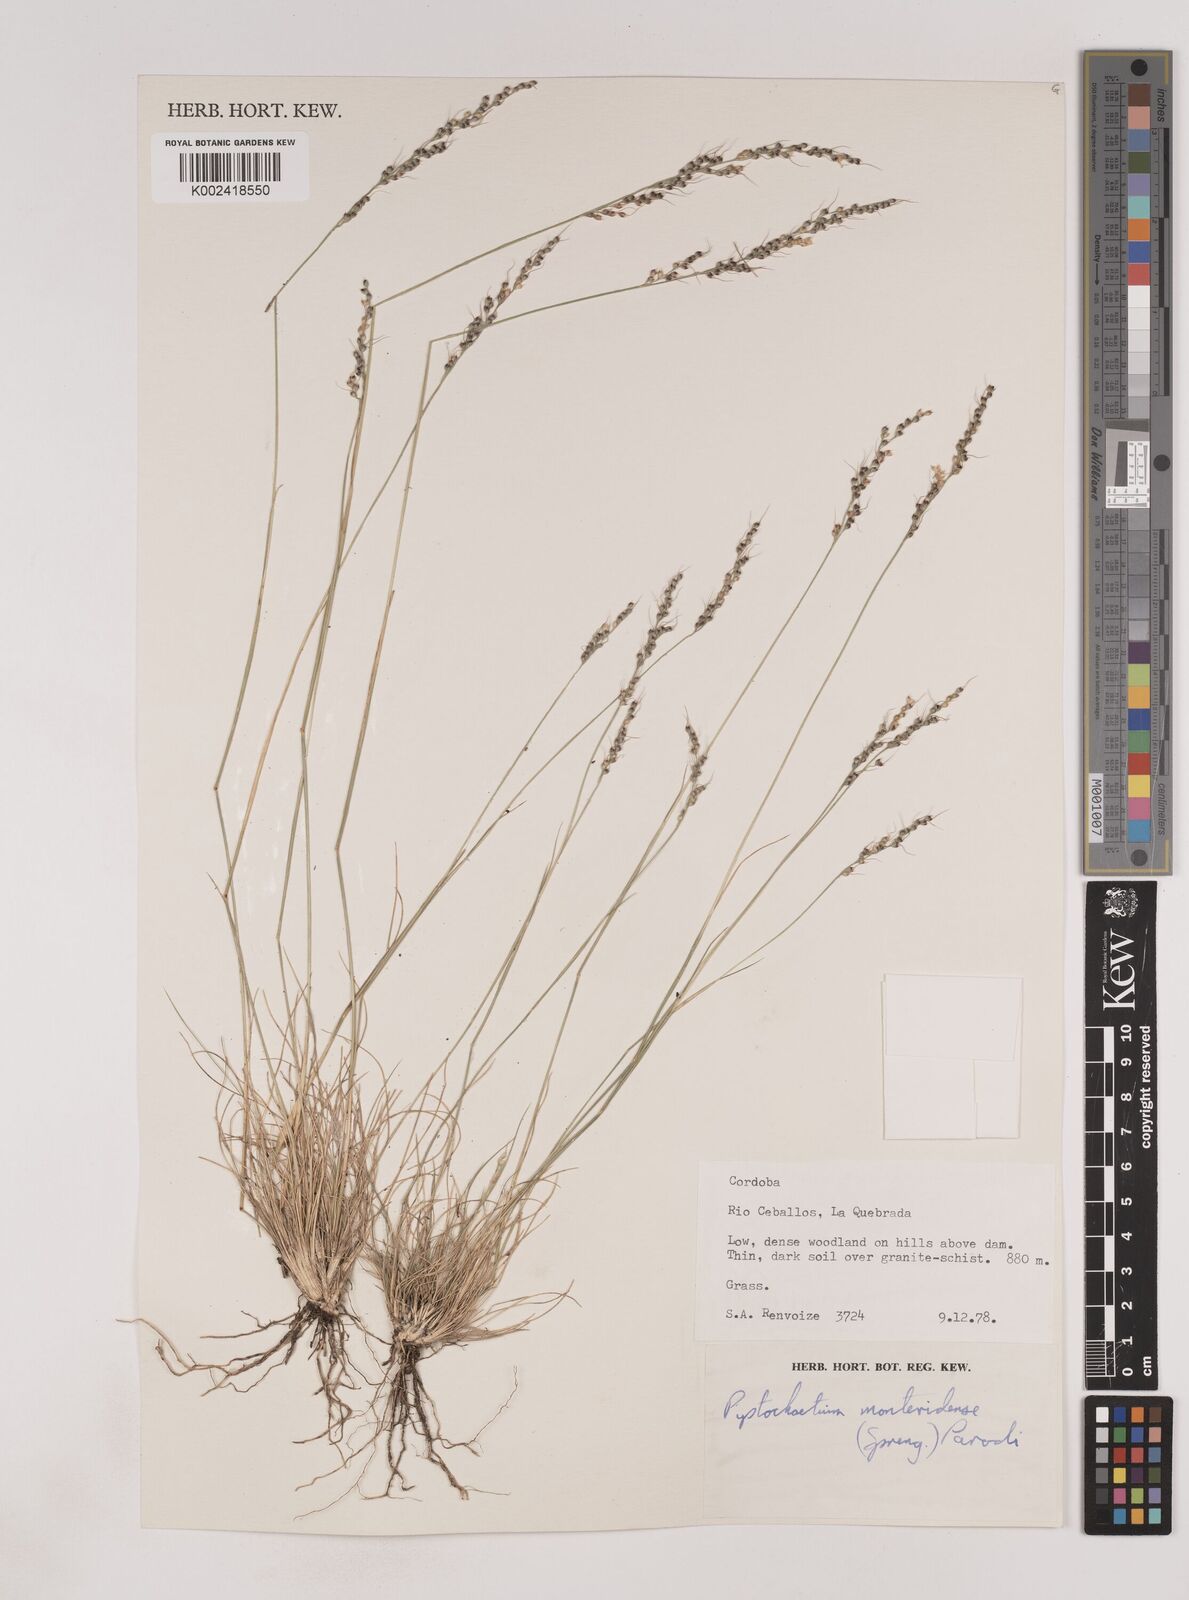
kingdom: Plantae
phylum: Tracheophyta
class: Liliopsida
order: Poales
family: Poaceae
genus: Piptochaetium
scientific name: Piptochaetium montevidense
